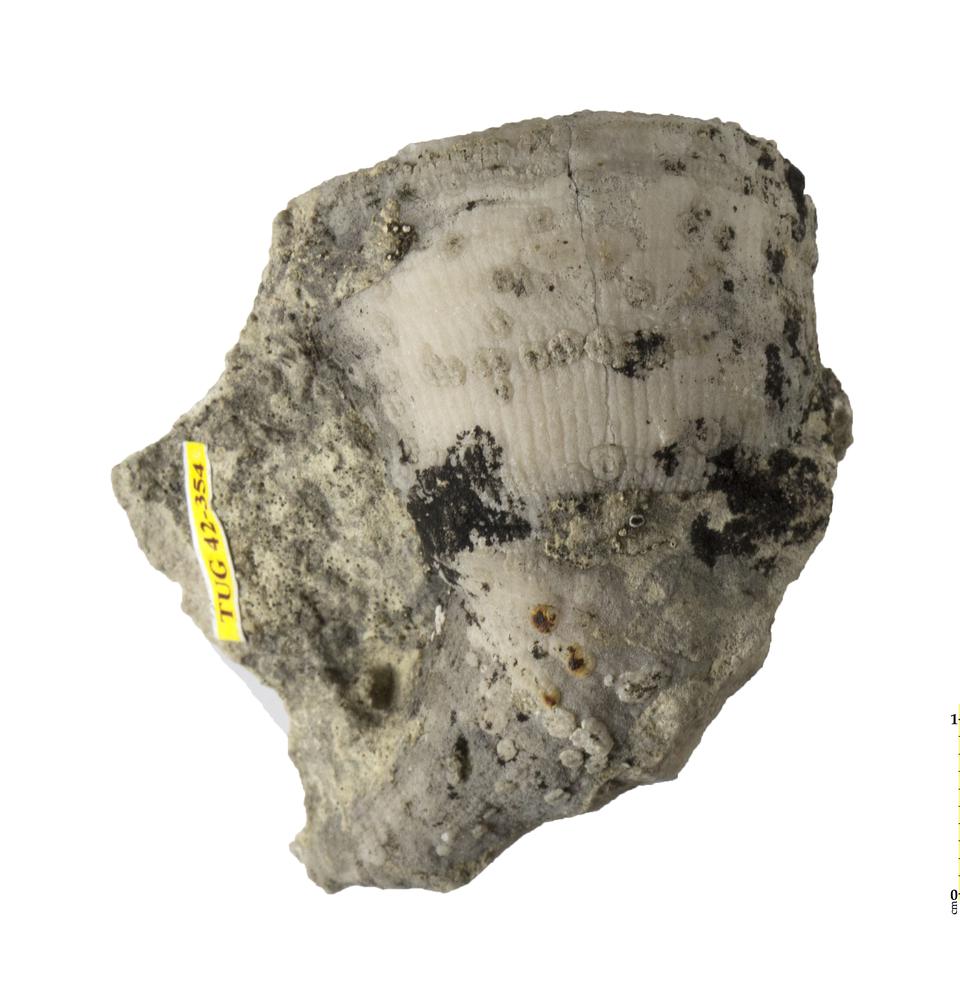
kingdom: Animalia
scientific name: Animalia
